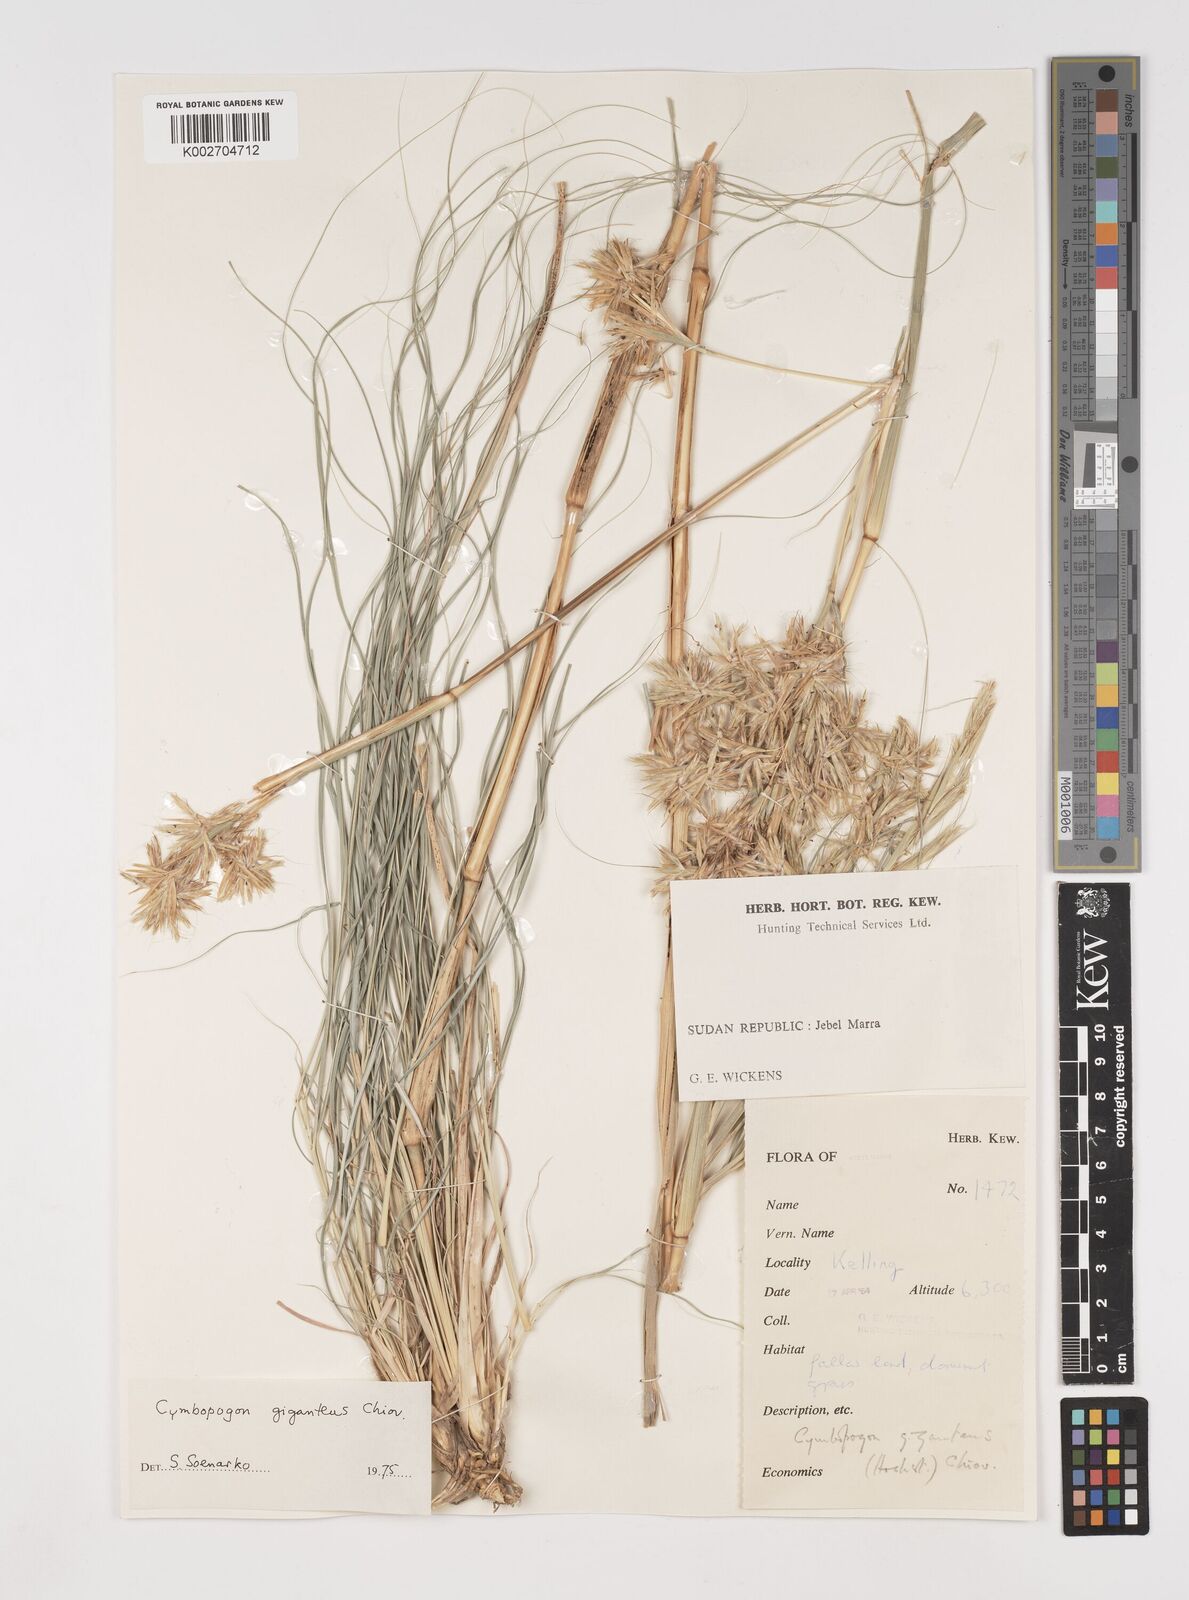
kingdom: Plantae
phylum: Tracheophyta
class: Liliopsida
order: Poales
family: Poaceae
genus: Cymbopogon
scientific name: Cymbopogon
